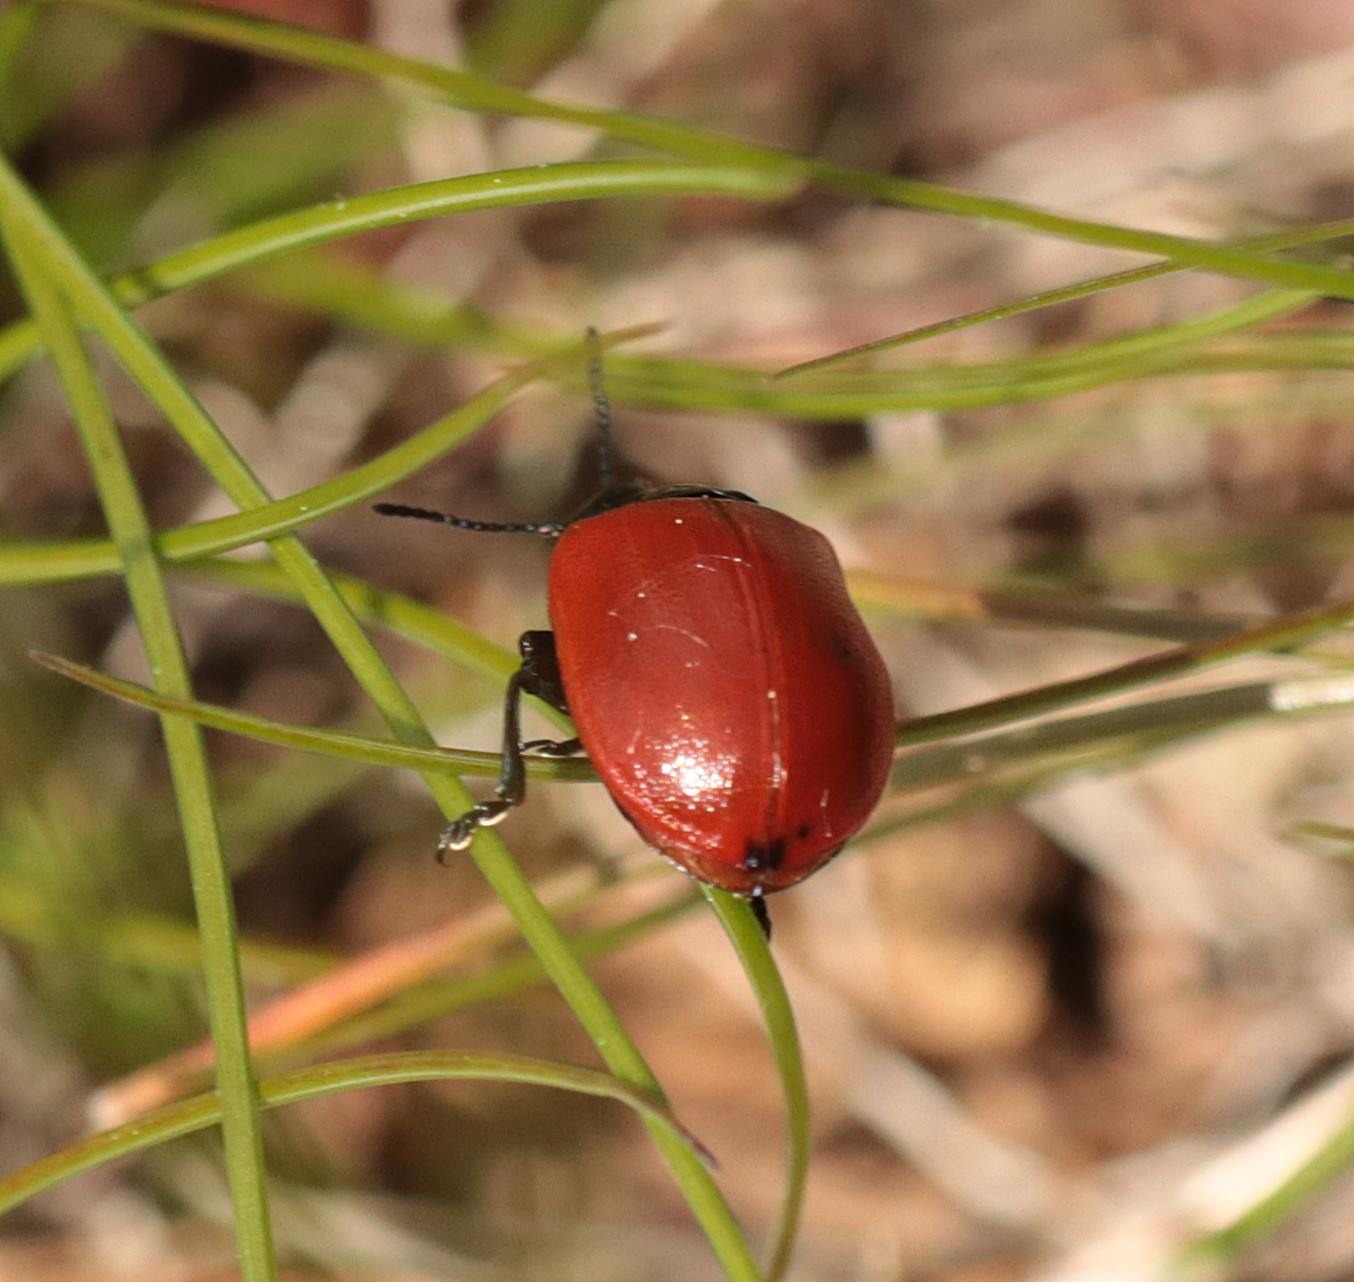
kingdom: Animalia
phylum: Arthropoda
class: Insecta
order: Coleoptera
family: Chrysomelidae
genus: Chrysomela
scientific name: Chrysomela populi
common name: Poppelbladbille
